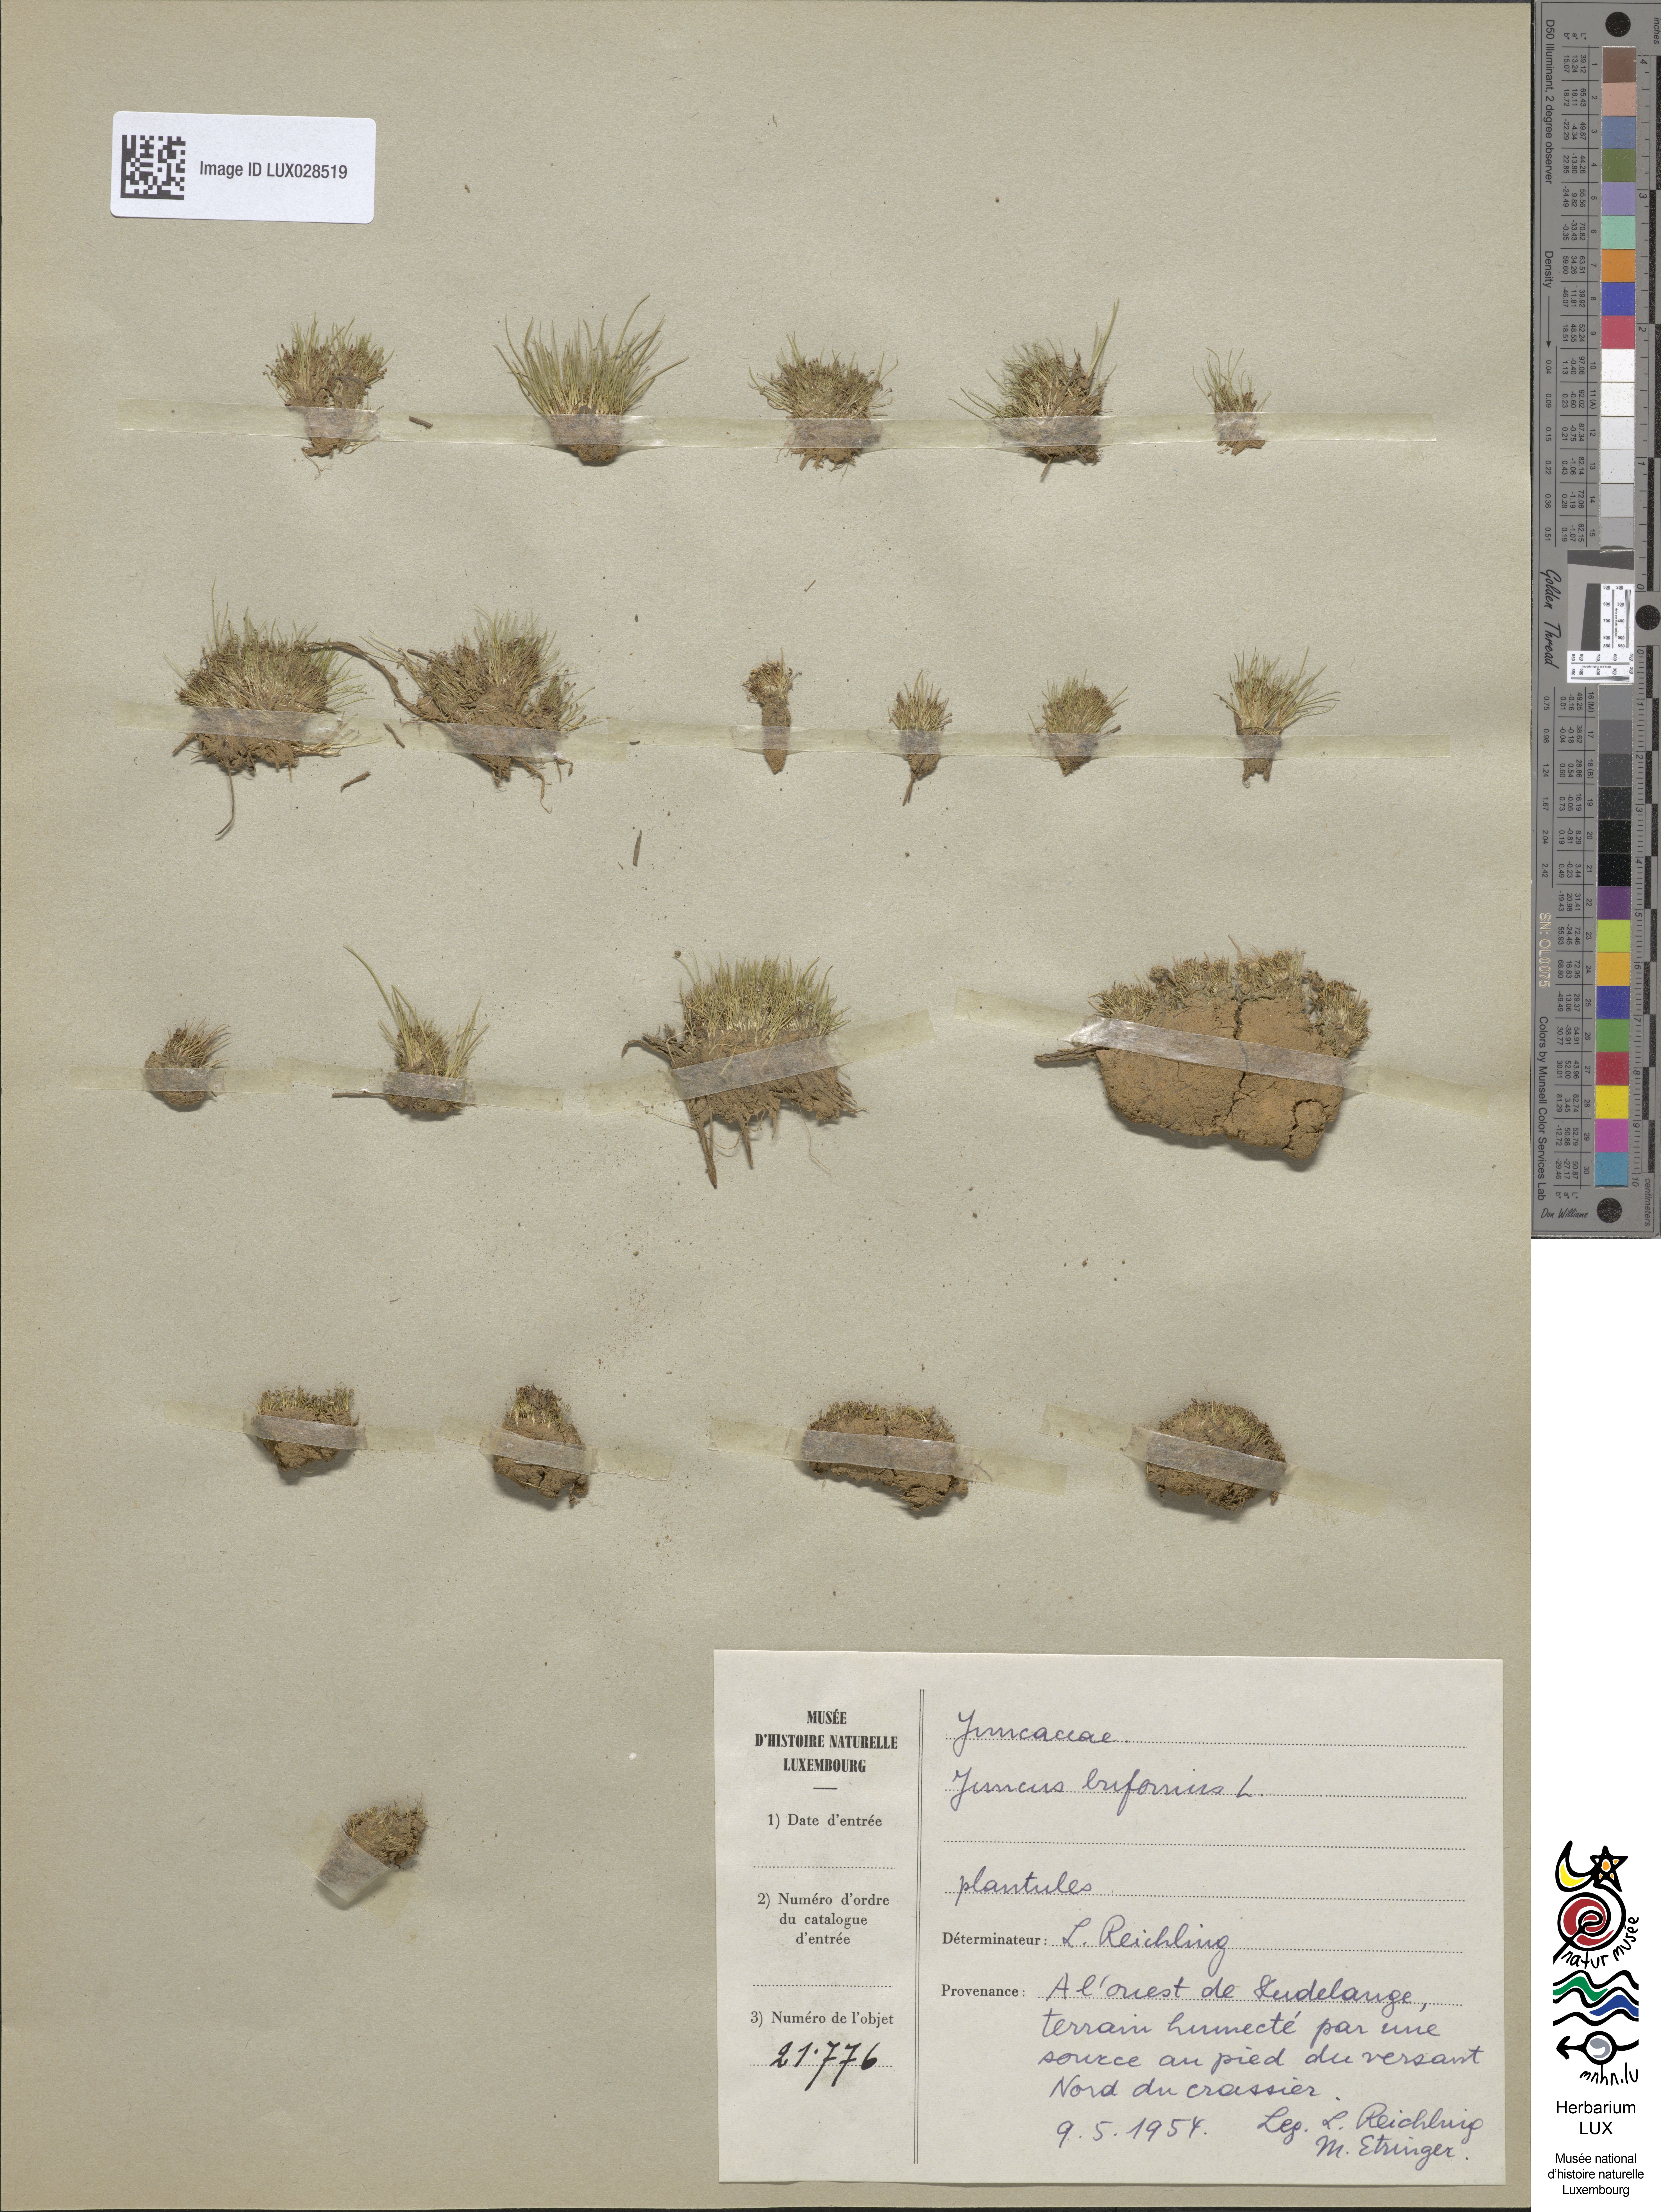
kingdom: Plantae
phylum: Tracheophyta
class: Liliopsida
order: Poales
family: Juncaceae
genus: Juncus
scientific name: Juncus bufonius
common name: Toad rush
